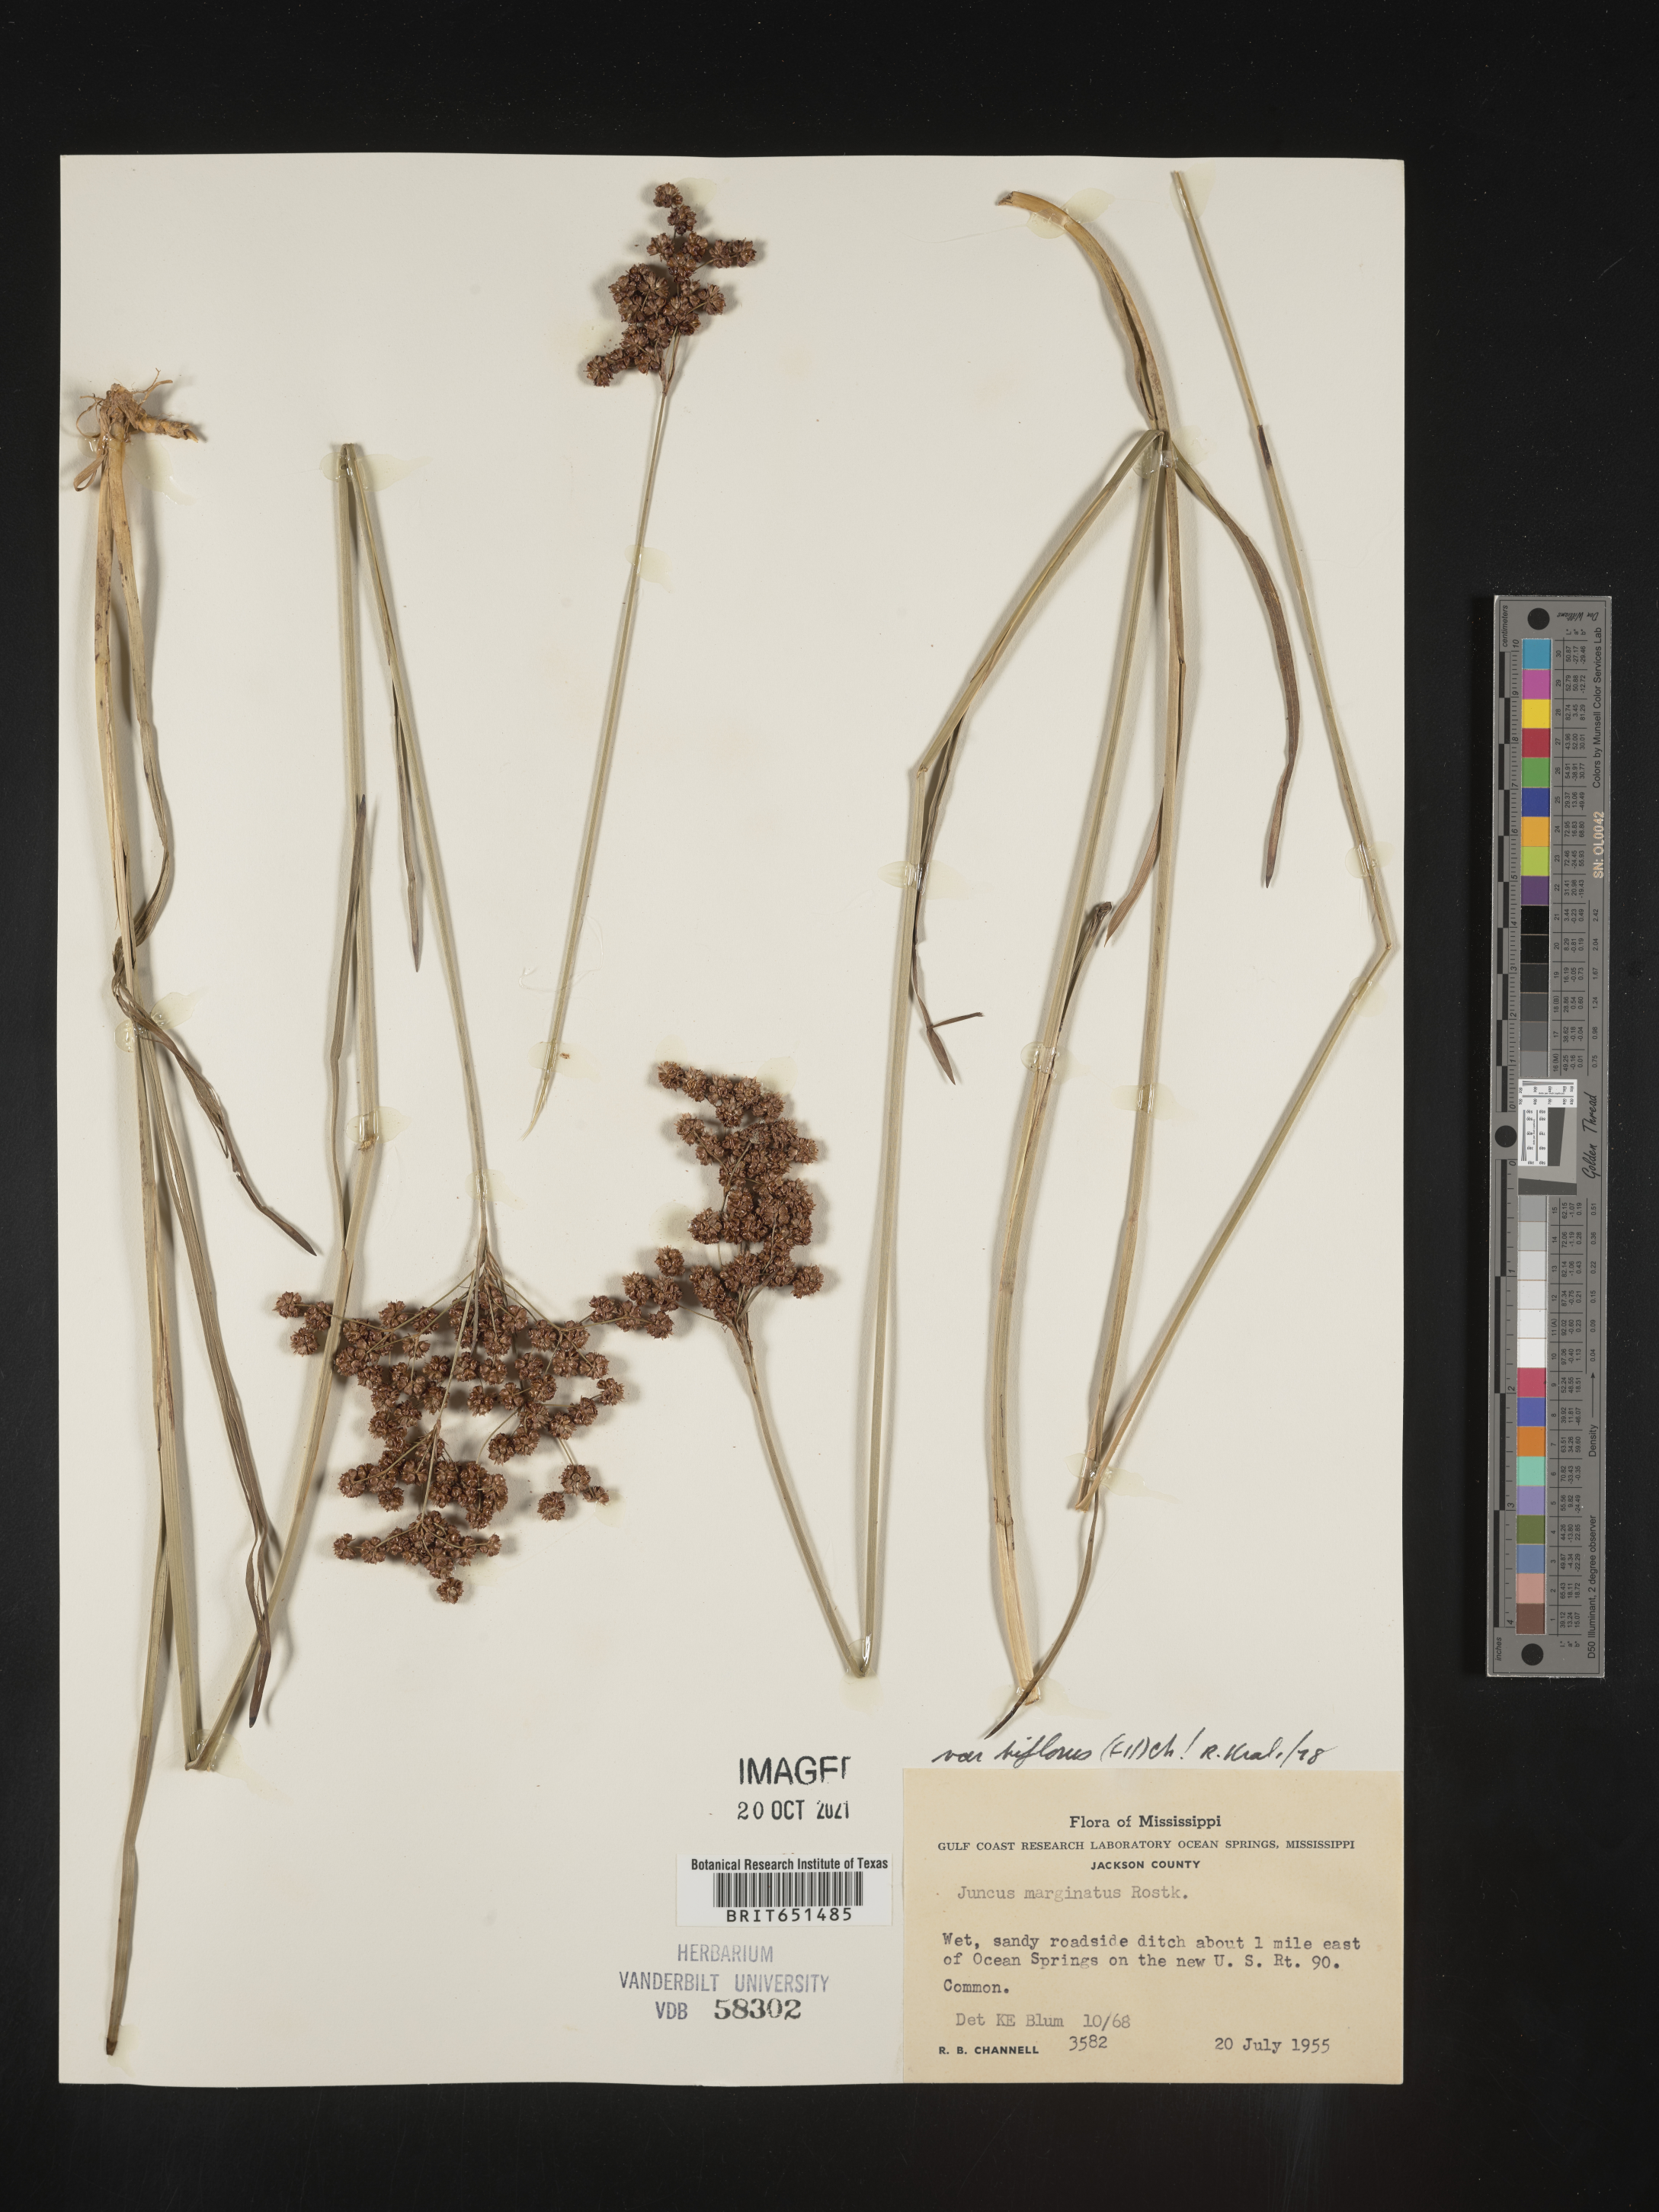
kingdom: Plantae
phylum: Tracheophyta
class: Liliopsida
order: Poales
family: Juncaceae
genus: Juncus
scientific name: Juncus biflorus
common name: Two-flowered rush
